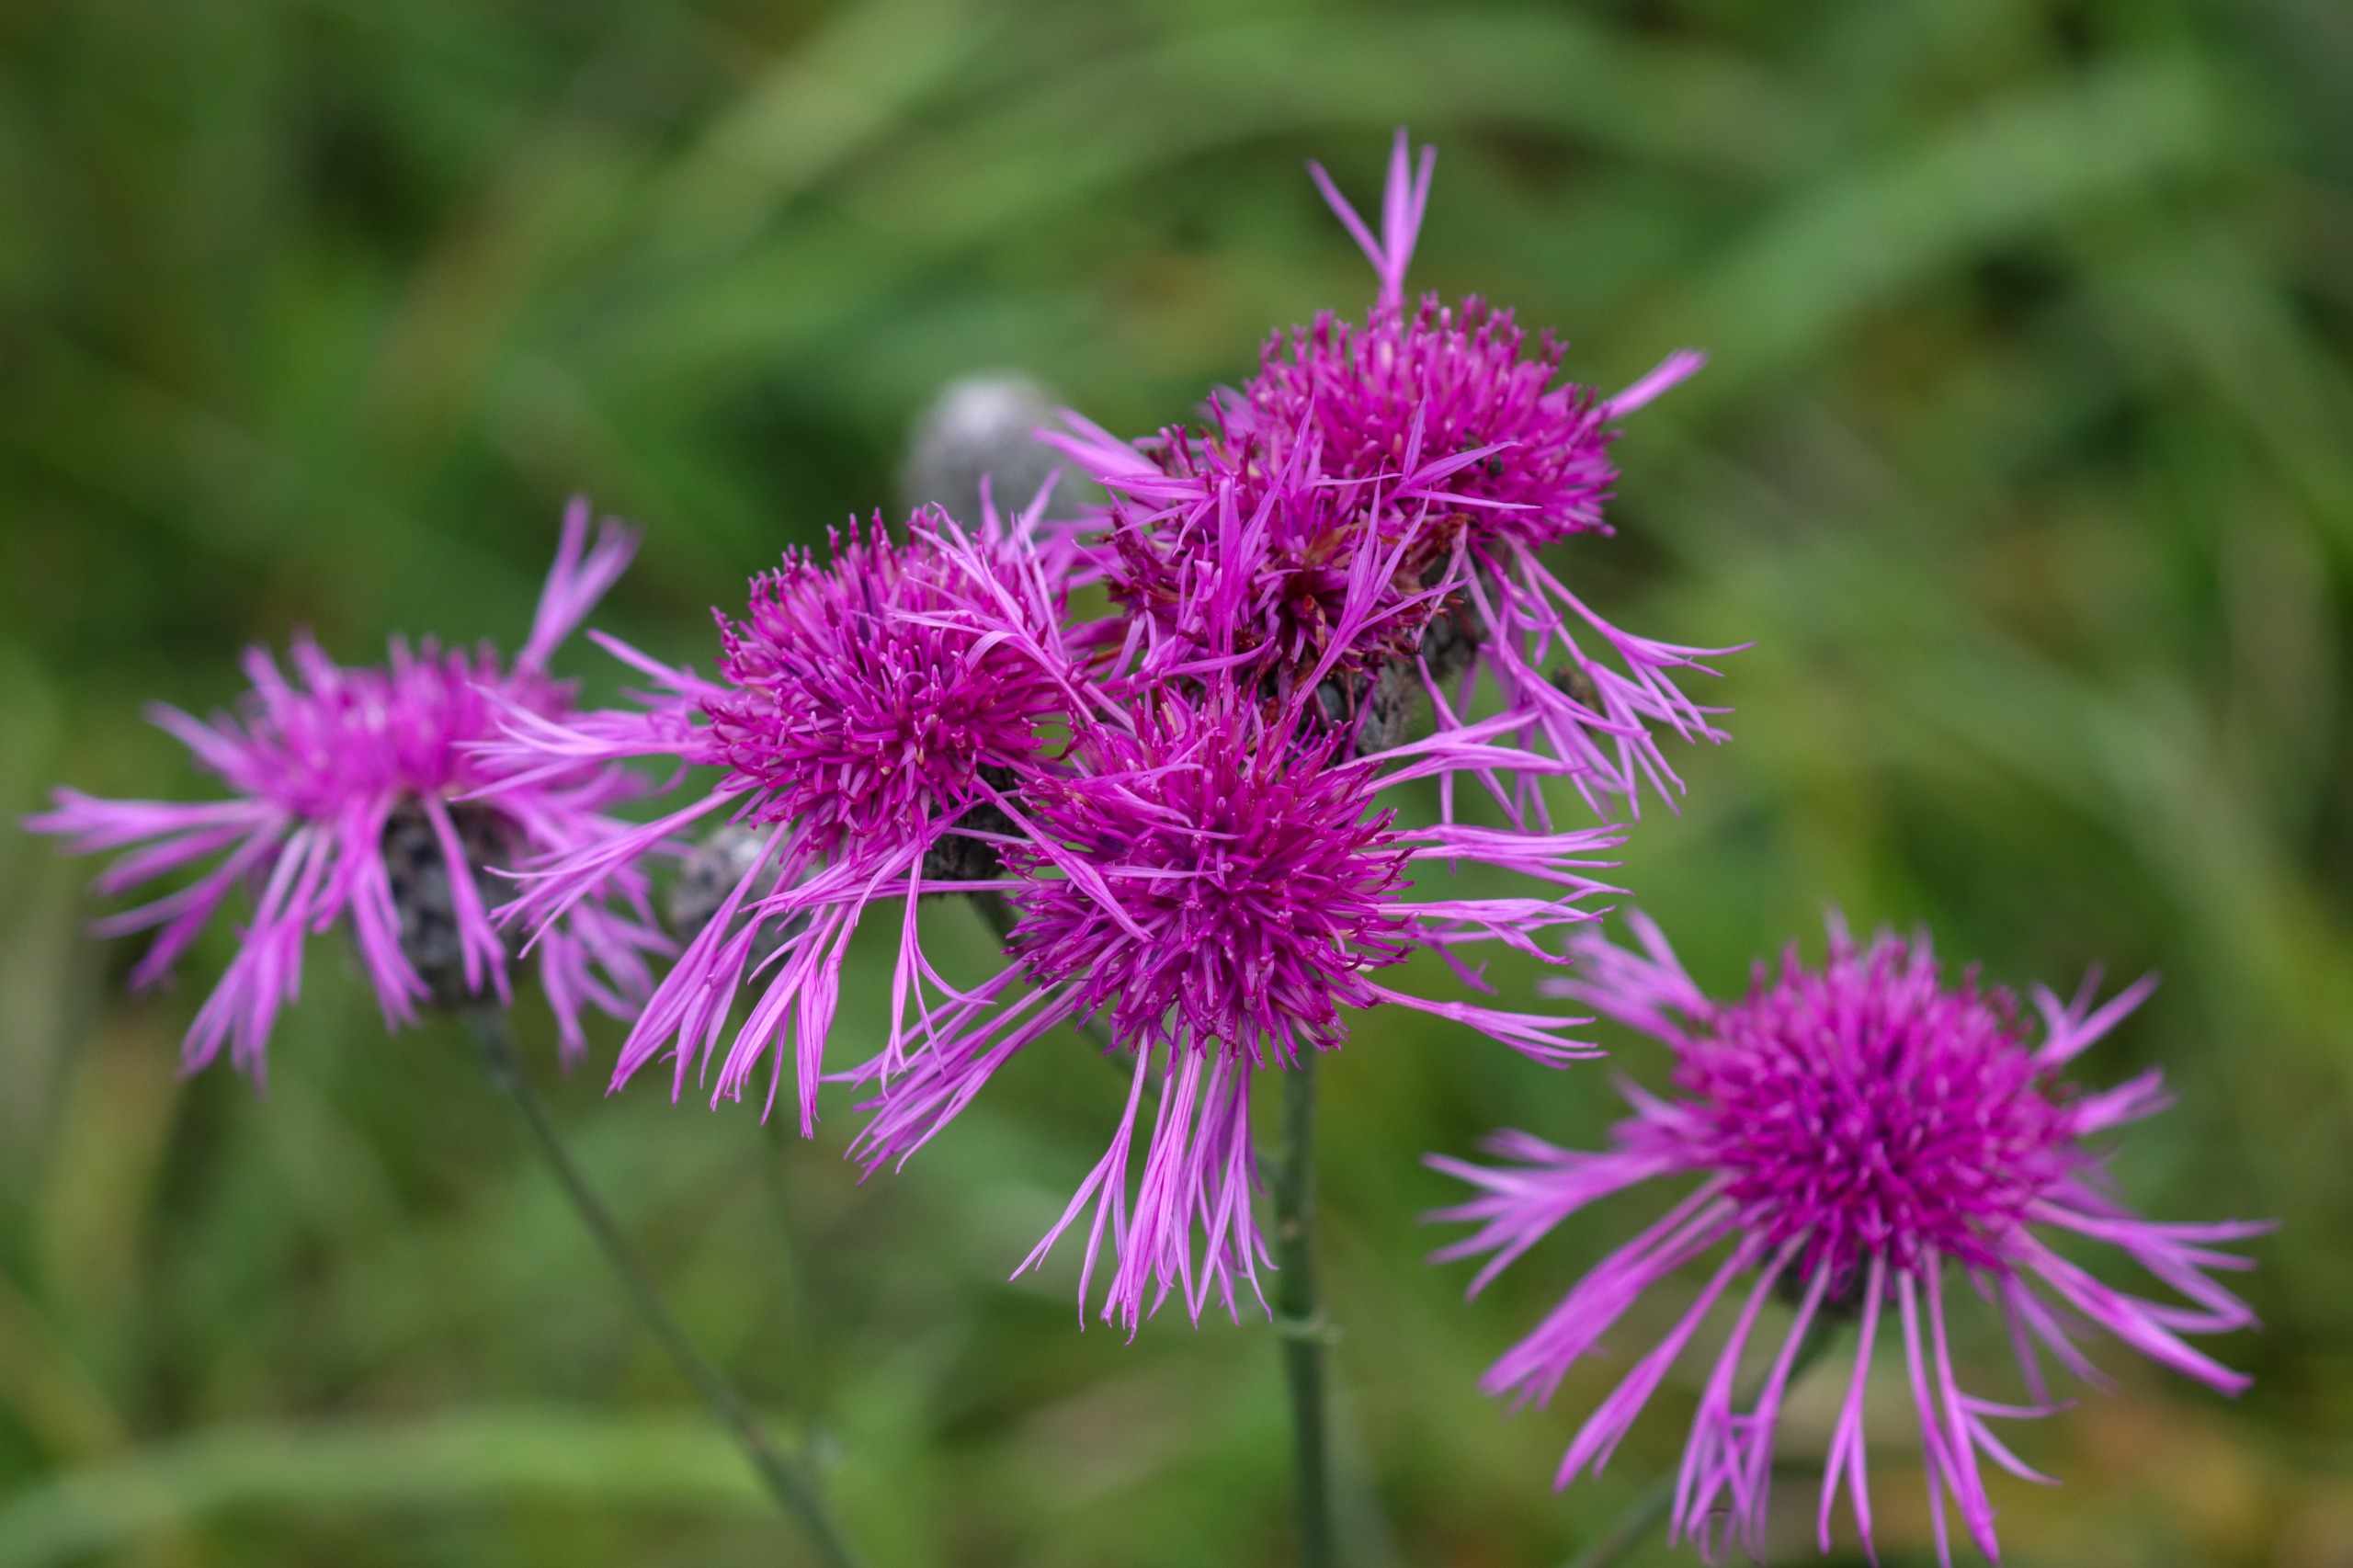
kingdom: Plantae
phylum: Tracheophyta
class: Magnoliopsida
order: Asterales
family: Asteraceae
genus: Centaurea
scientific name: Centaurea scabiosa
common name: Stor knopurt
